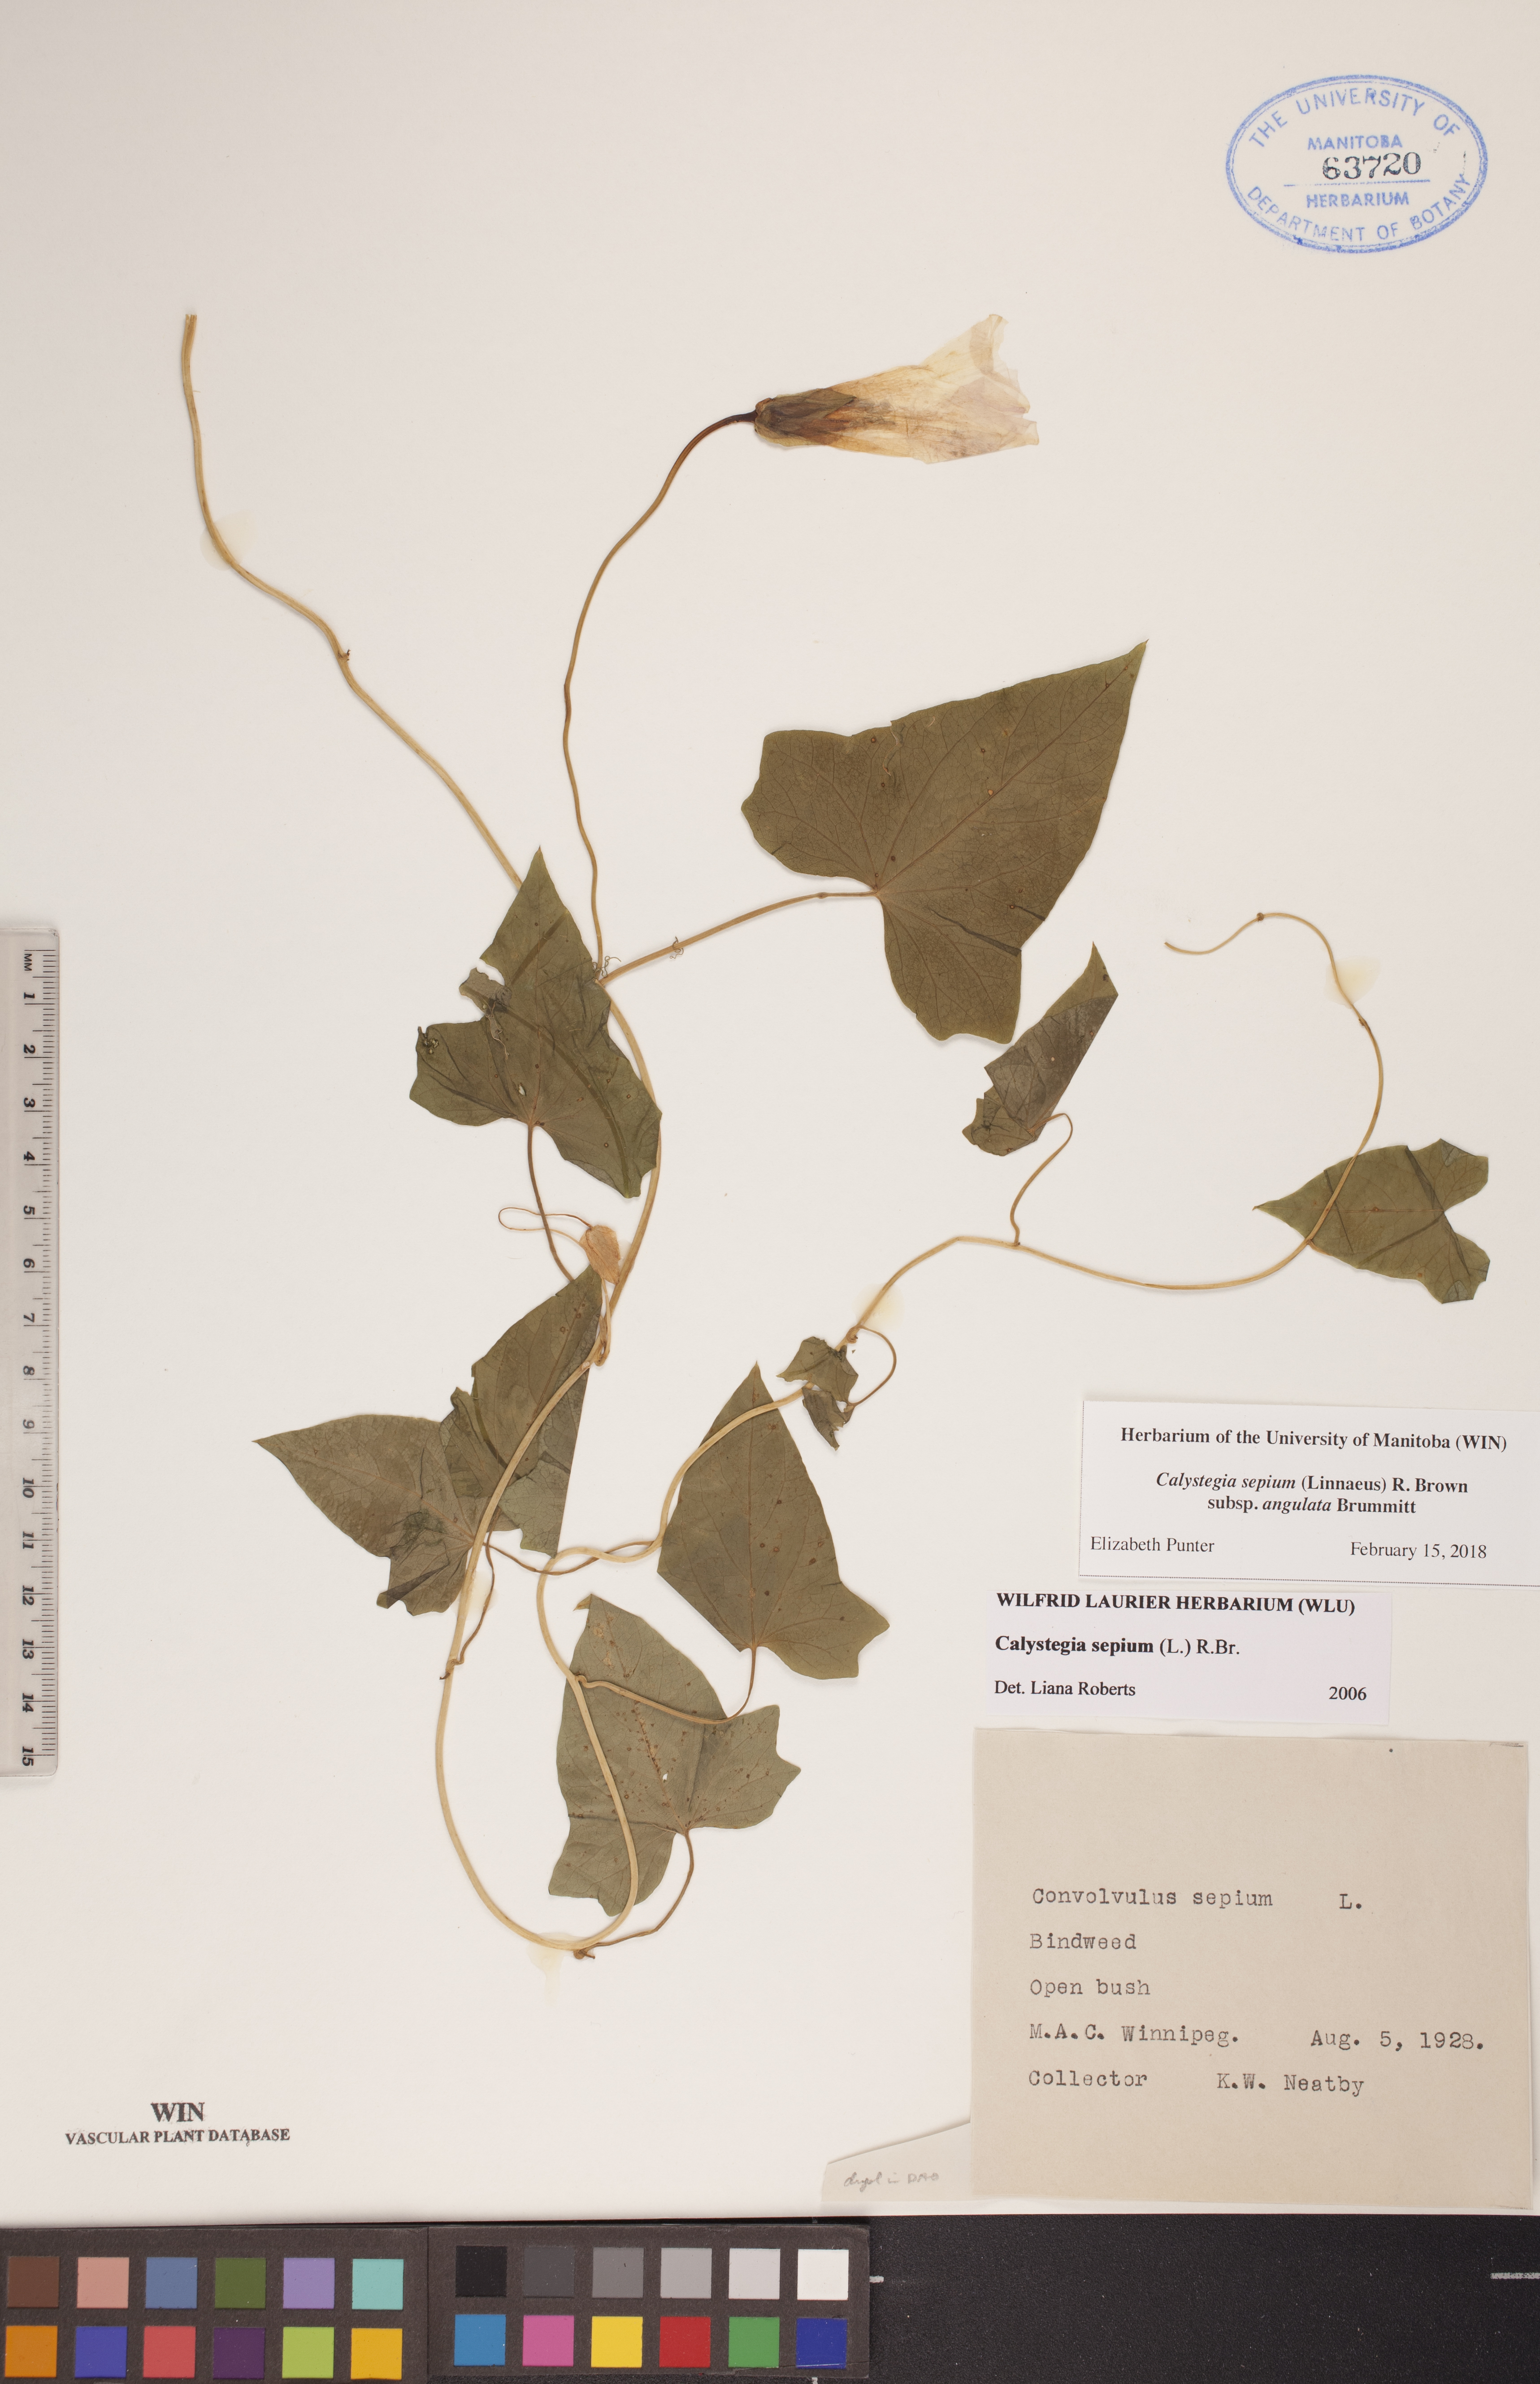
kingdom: Plantae
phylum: Tracheophyta
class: Magnoliopsida
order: Solanales
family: Convolvulaceae
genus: Calystegia
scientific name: Calystegia sepium
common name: Hedge bindweed
